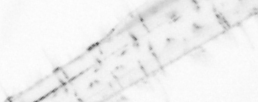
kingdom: Animalia
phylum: Chaetognatha
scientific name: Chaetognatha
